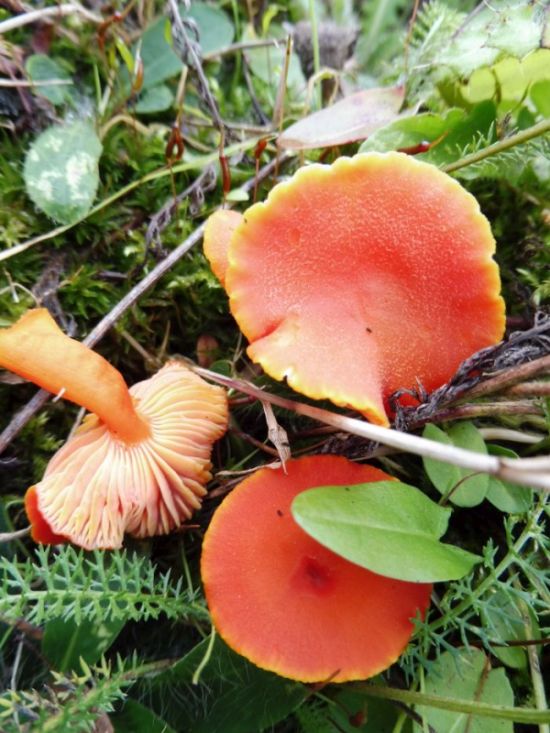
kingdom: Fungi
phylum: Basidiomycota
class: Agaricomycetes
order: Agaricales
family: Hygrophoraceae
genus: Hygrocybe
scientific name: Hygrocybe miniata
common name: mønje-vokshat
